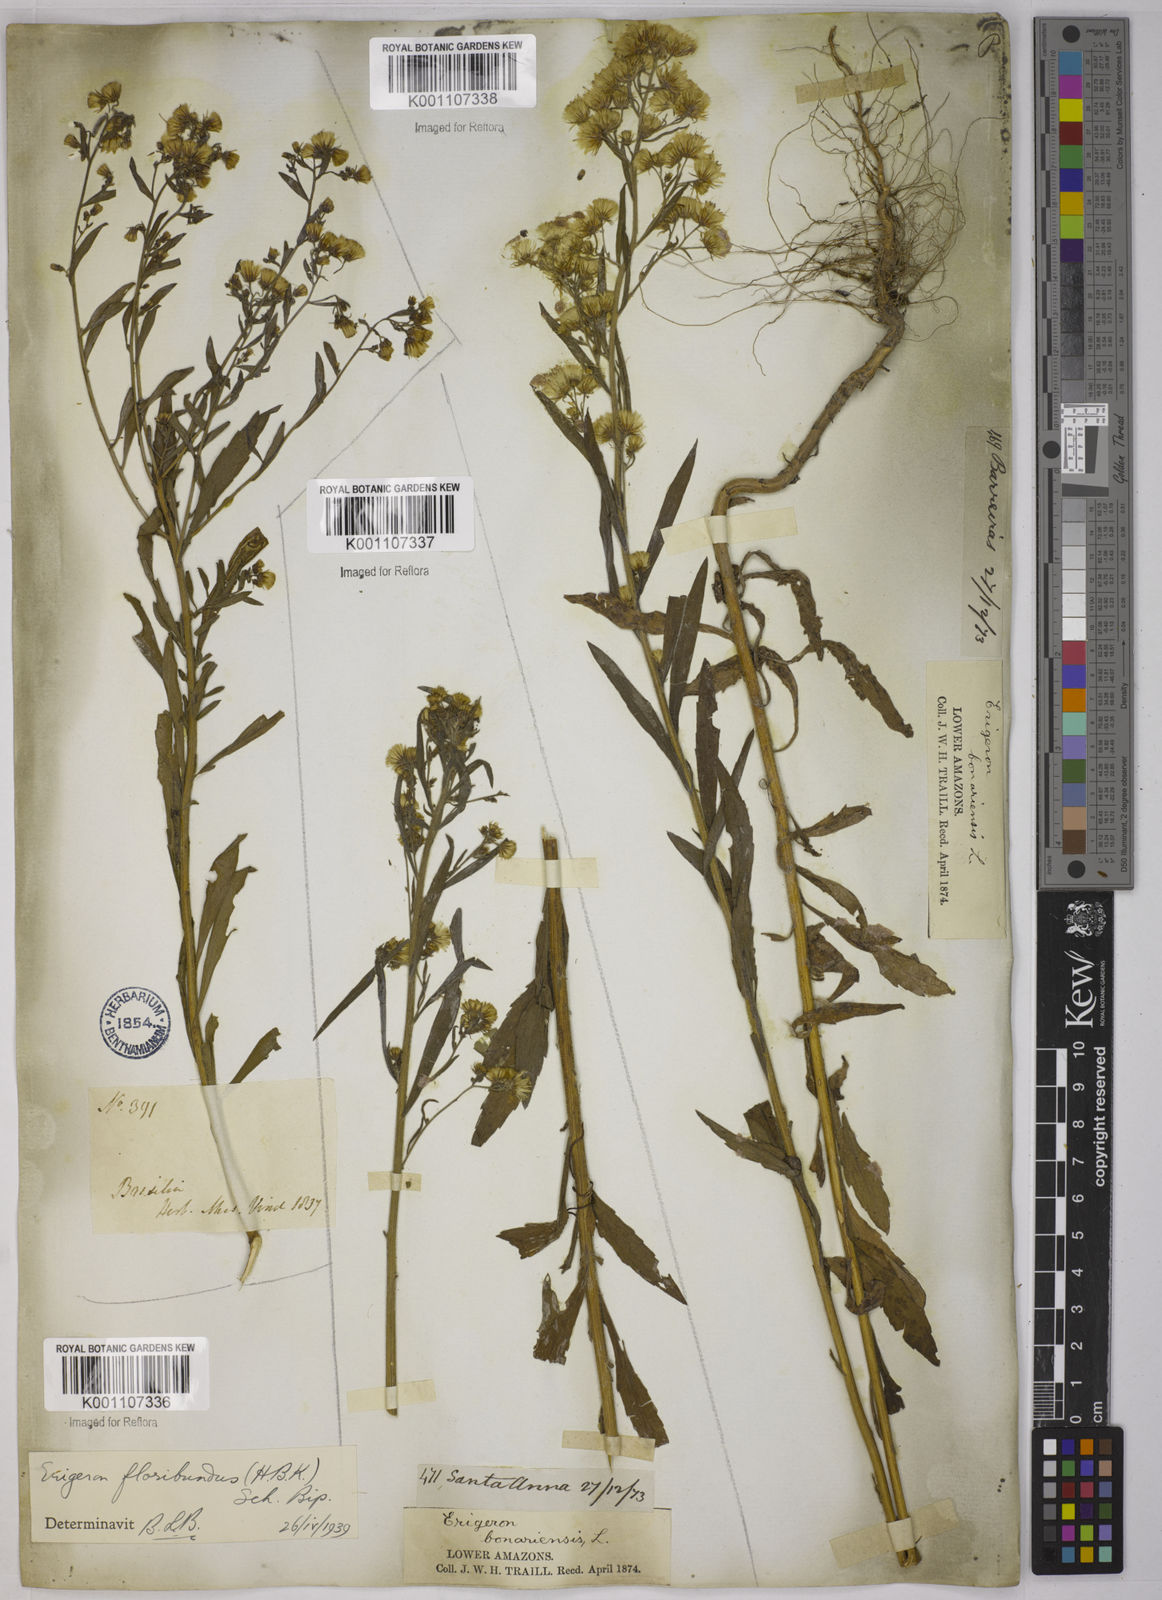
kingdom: Plantae
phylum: Tracheophyta
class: Magnoliopsida
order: Asterales
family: Asteraceae
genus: Erigeron
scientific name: Erigeron floribundus
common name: Bilbao fleabane
